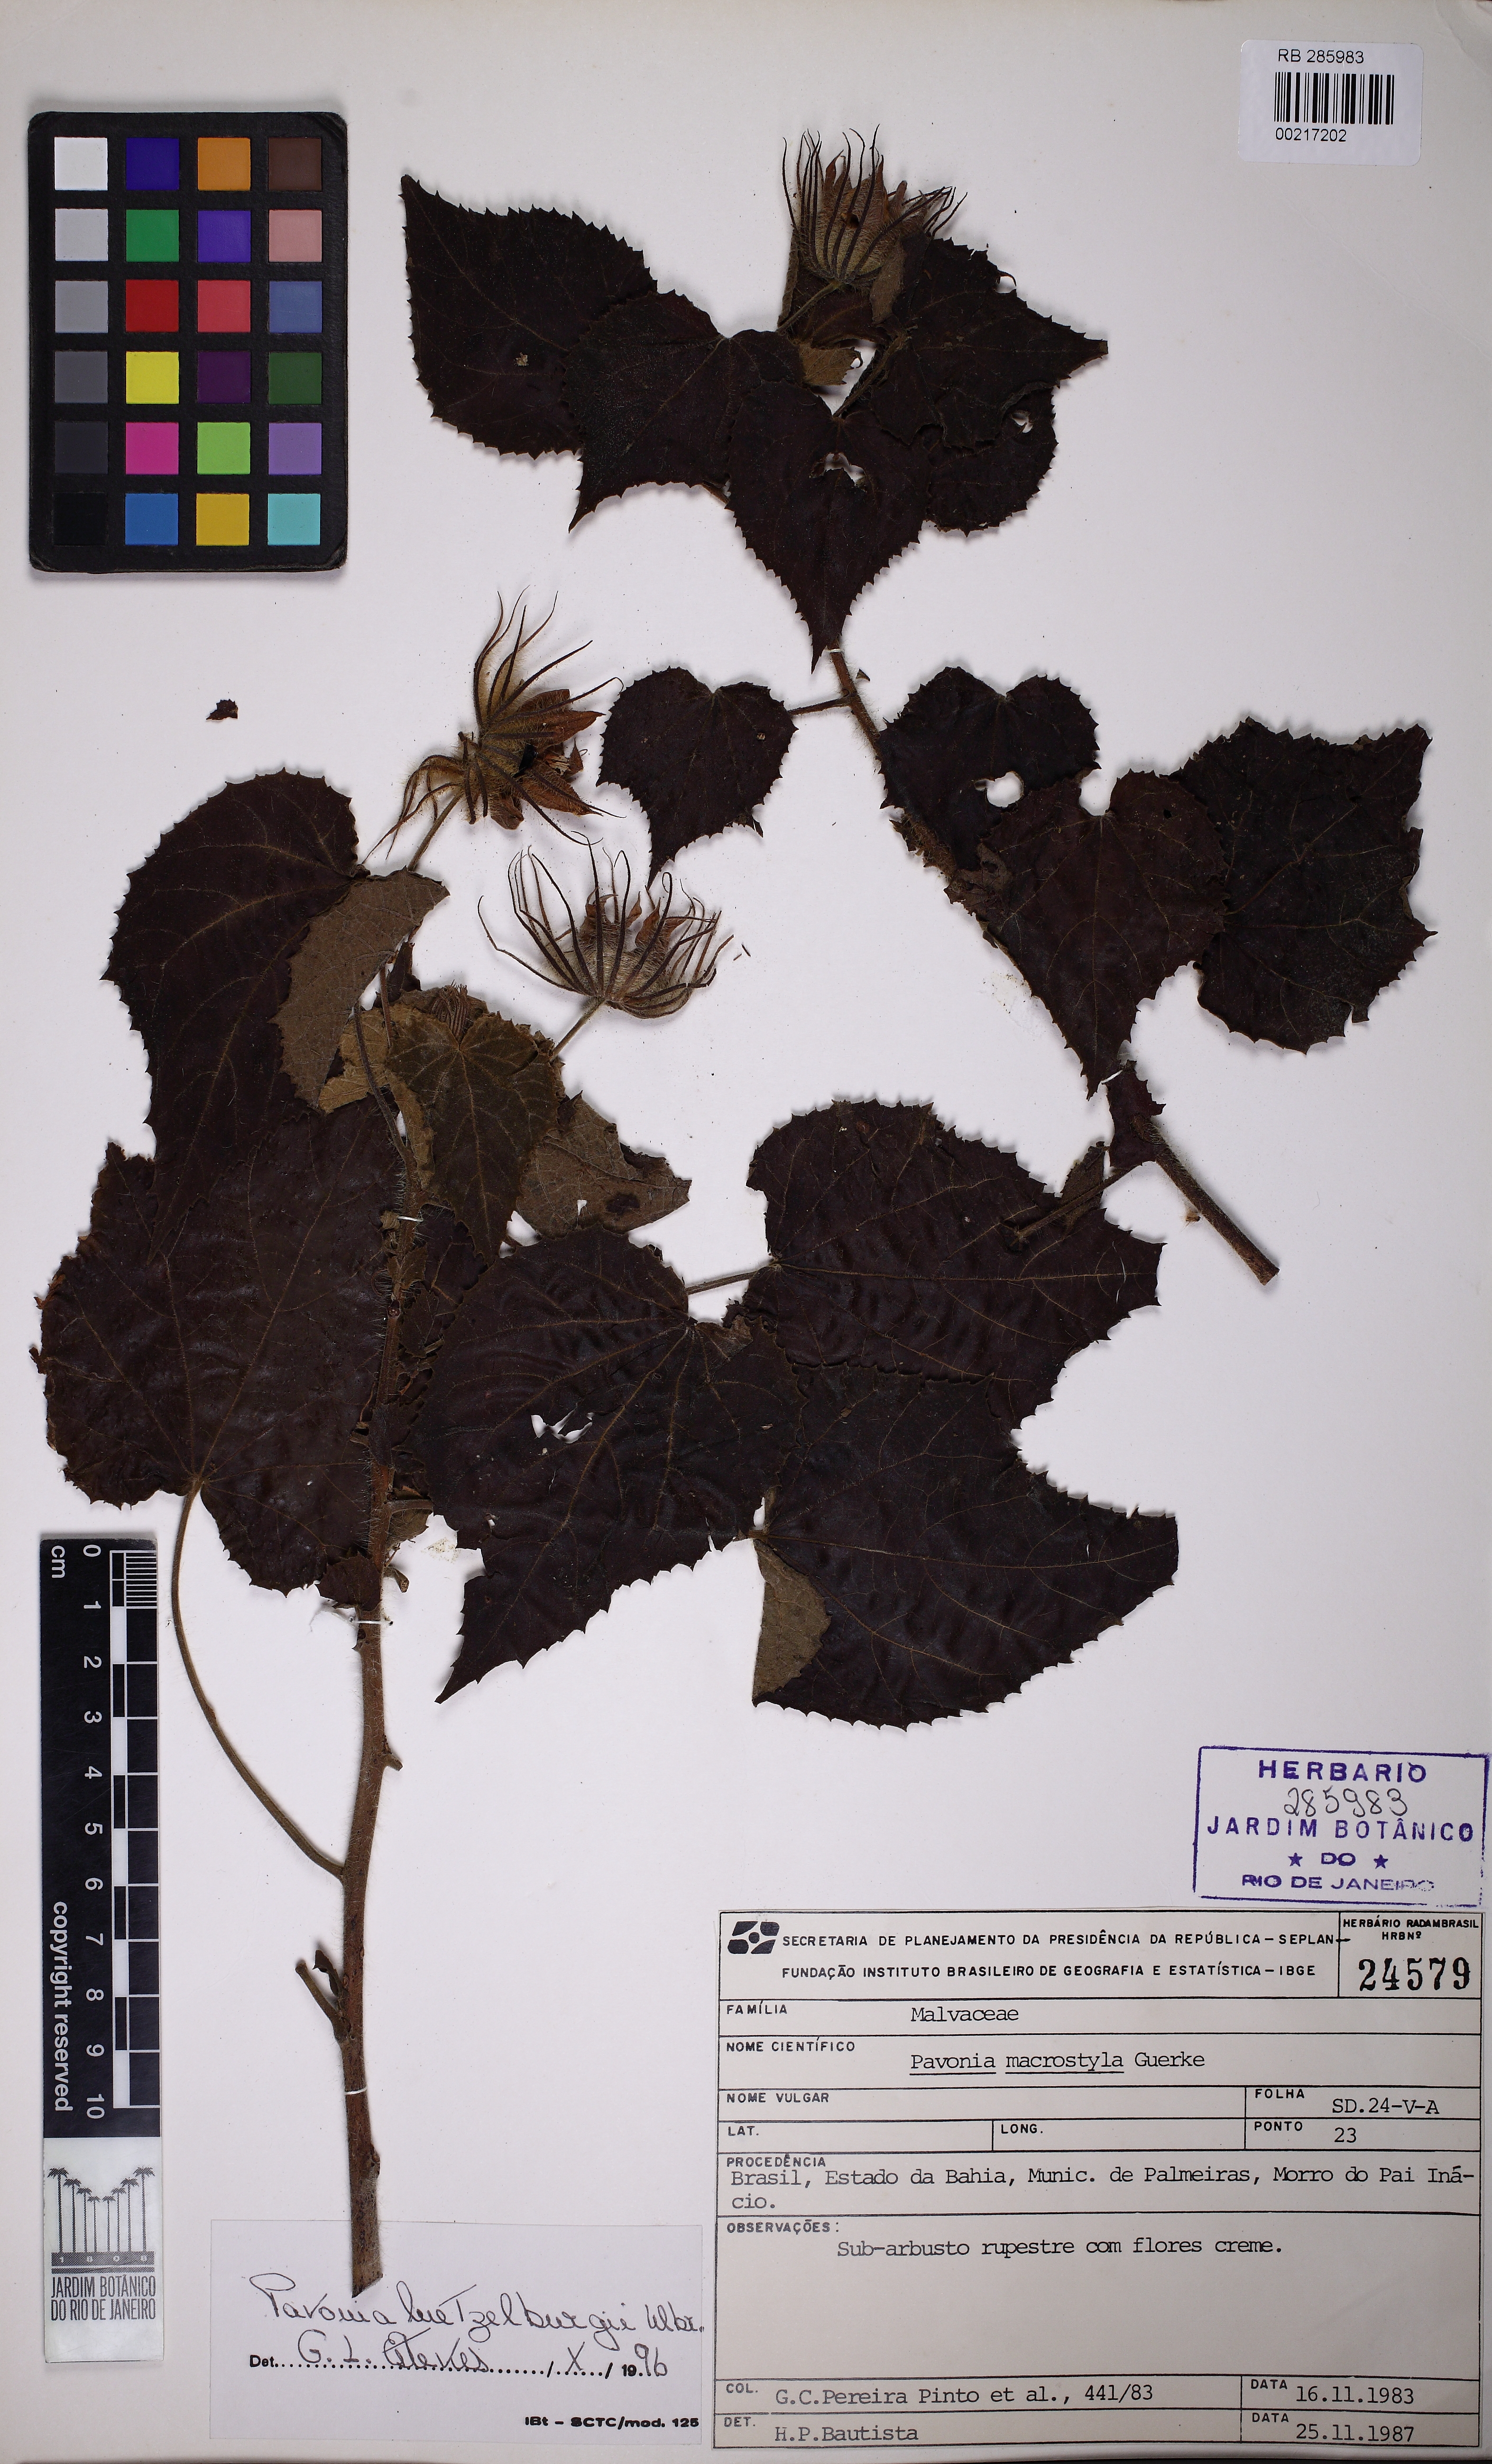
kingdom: Plantae
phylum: Tracheophyta
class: Magnoliopsida
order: Malvales
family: Malvaceae
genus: Pavonia
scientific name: Pavonia macrostyla
